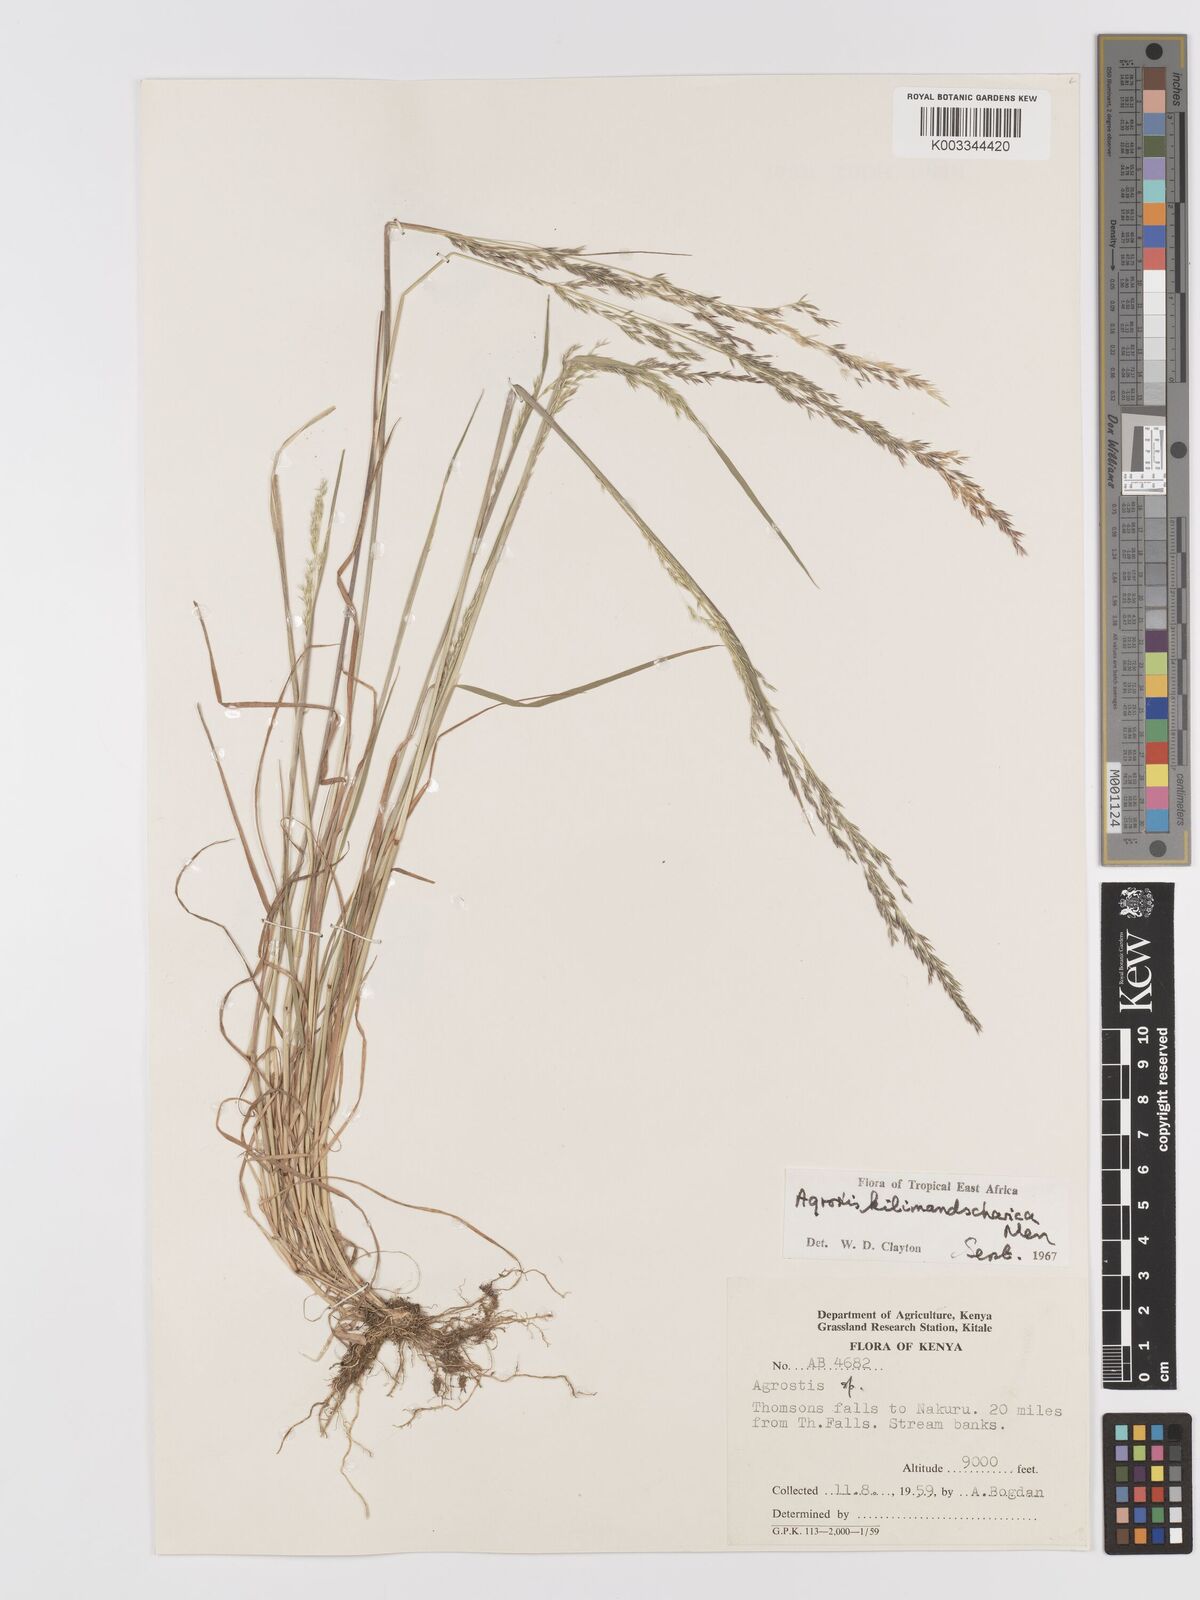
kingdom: Plantae
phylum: Tracheophyta
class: Liliopsida
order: Poales
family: Poaceae
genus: Agrostis
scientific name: Agrostis kilimandscharica
